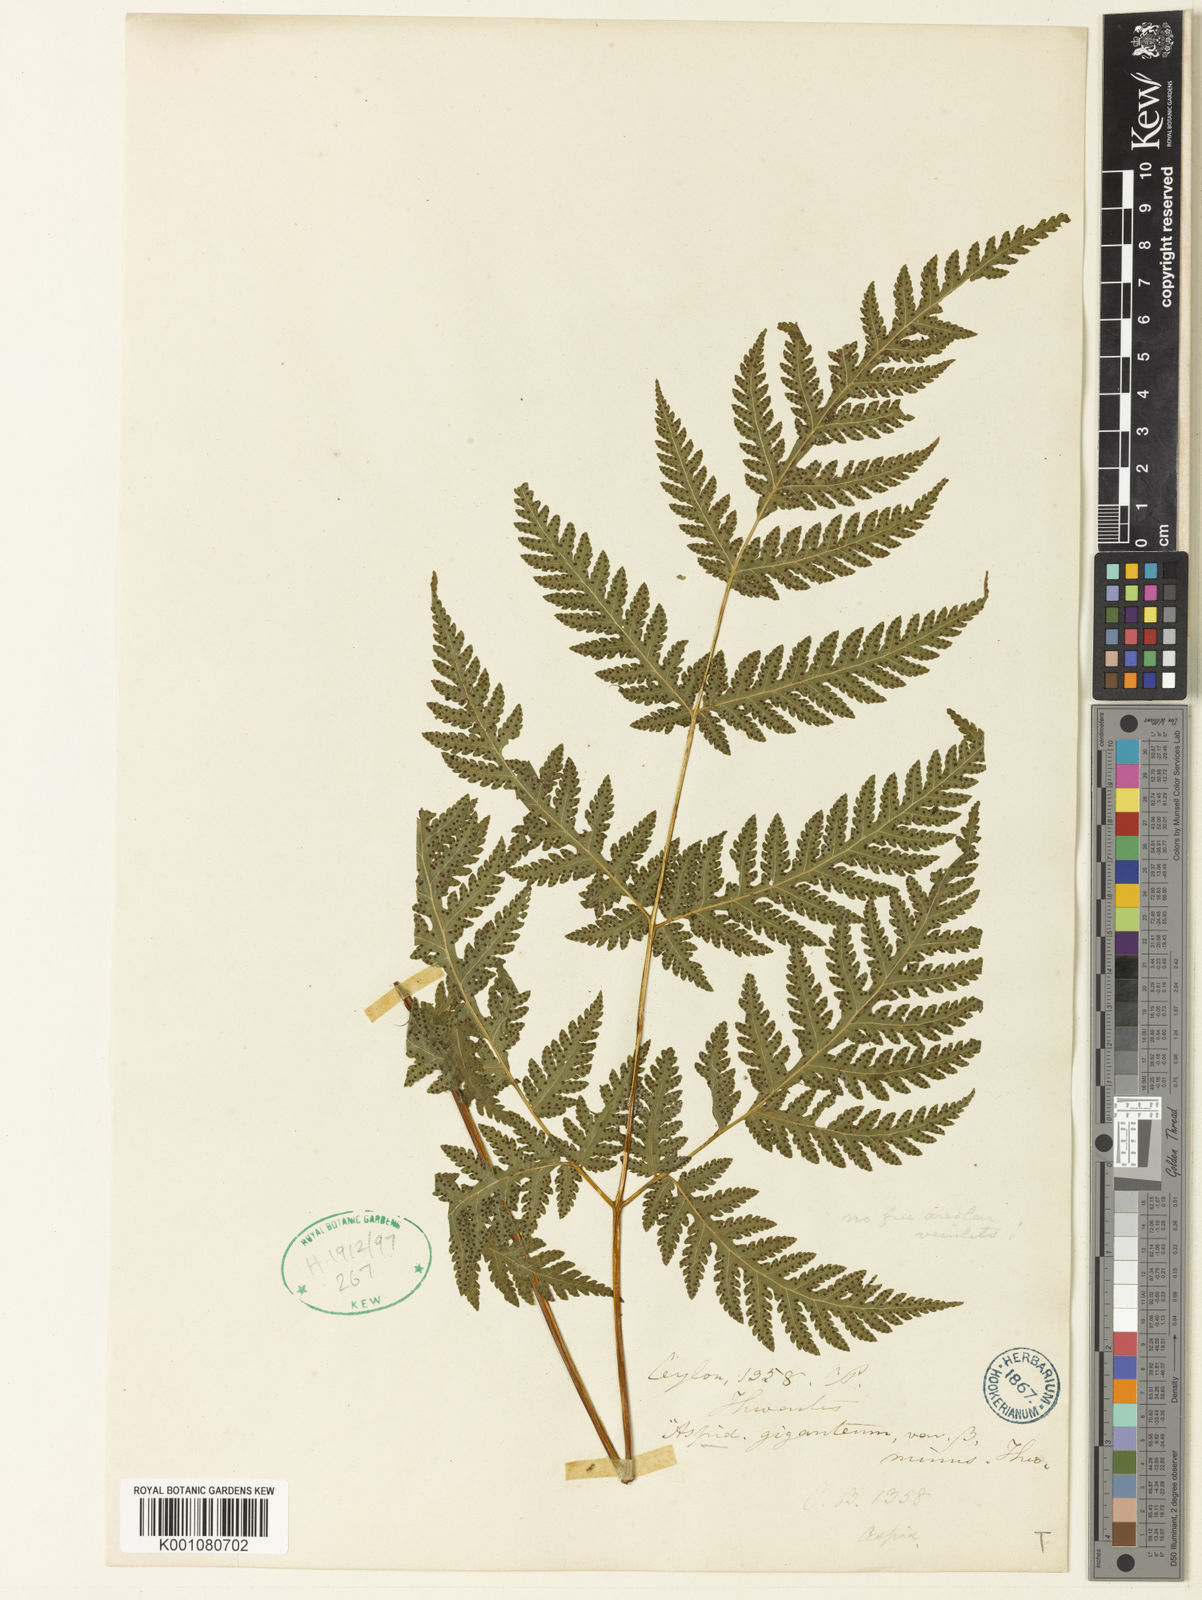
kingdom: Plantae
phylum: Tracheophyta
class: Polypodiopsida
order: Polypodiales
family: Tectariaceae
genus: Tectaria
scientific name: Tectaria membranacea
